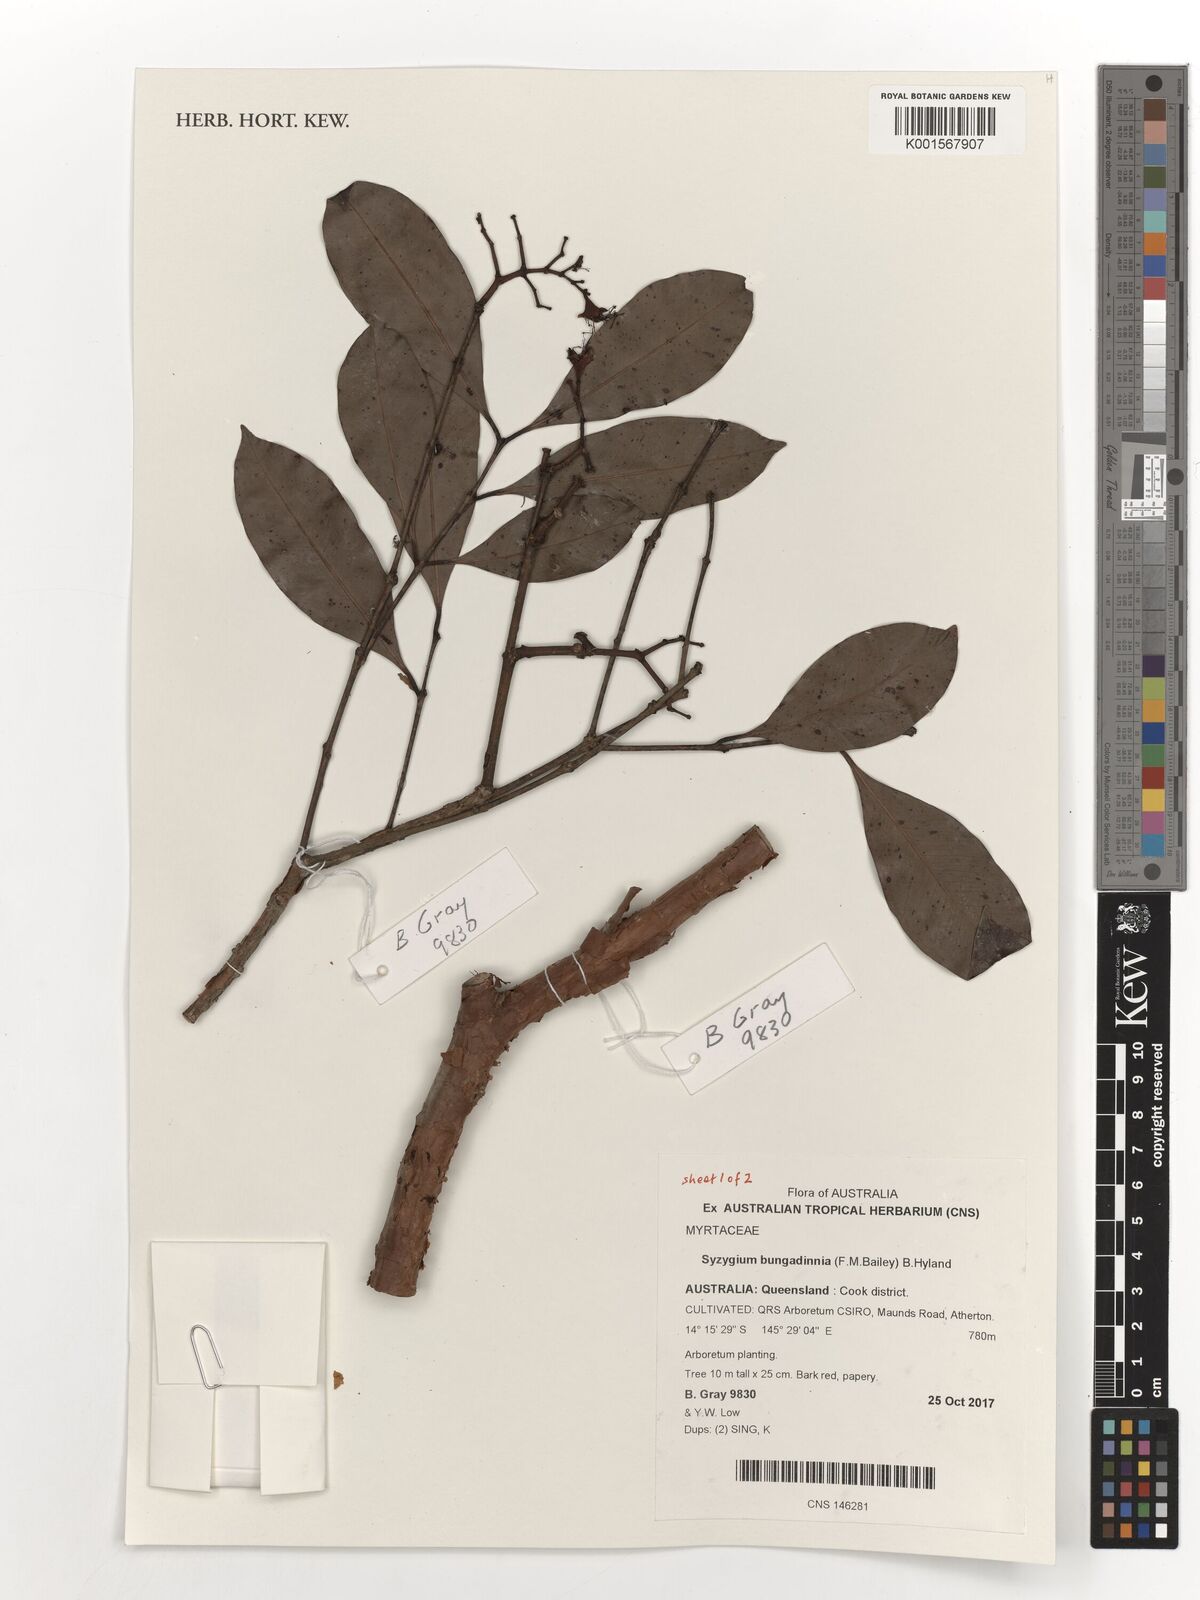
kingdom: Plantae
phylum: Tracheophyta
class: Magnoliopsida
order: Myrtales
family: Myrtaceae
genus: Syzygium
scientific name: Syzygium bungadinnia
